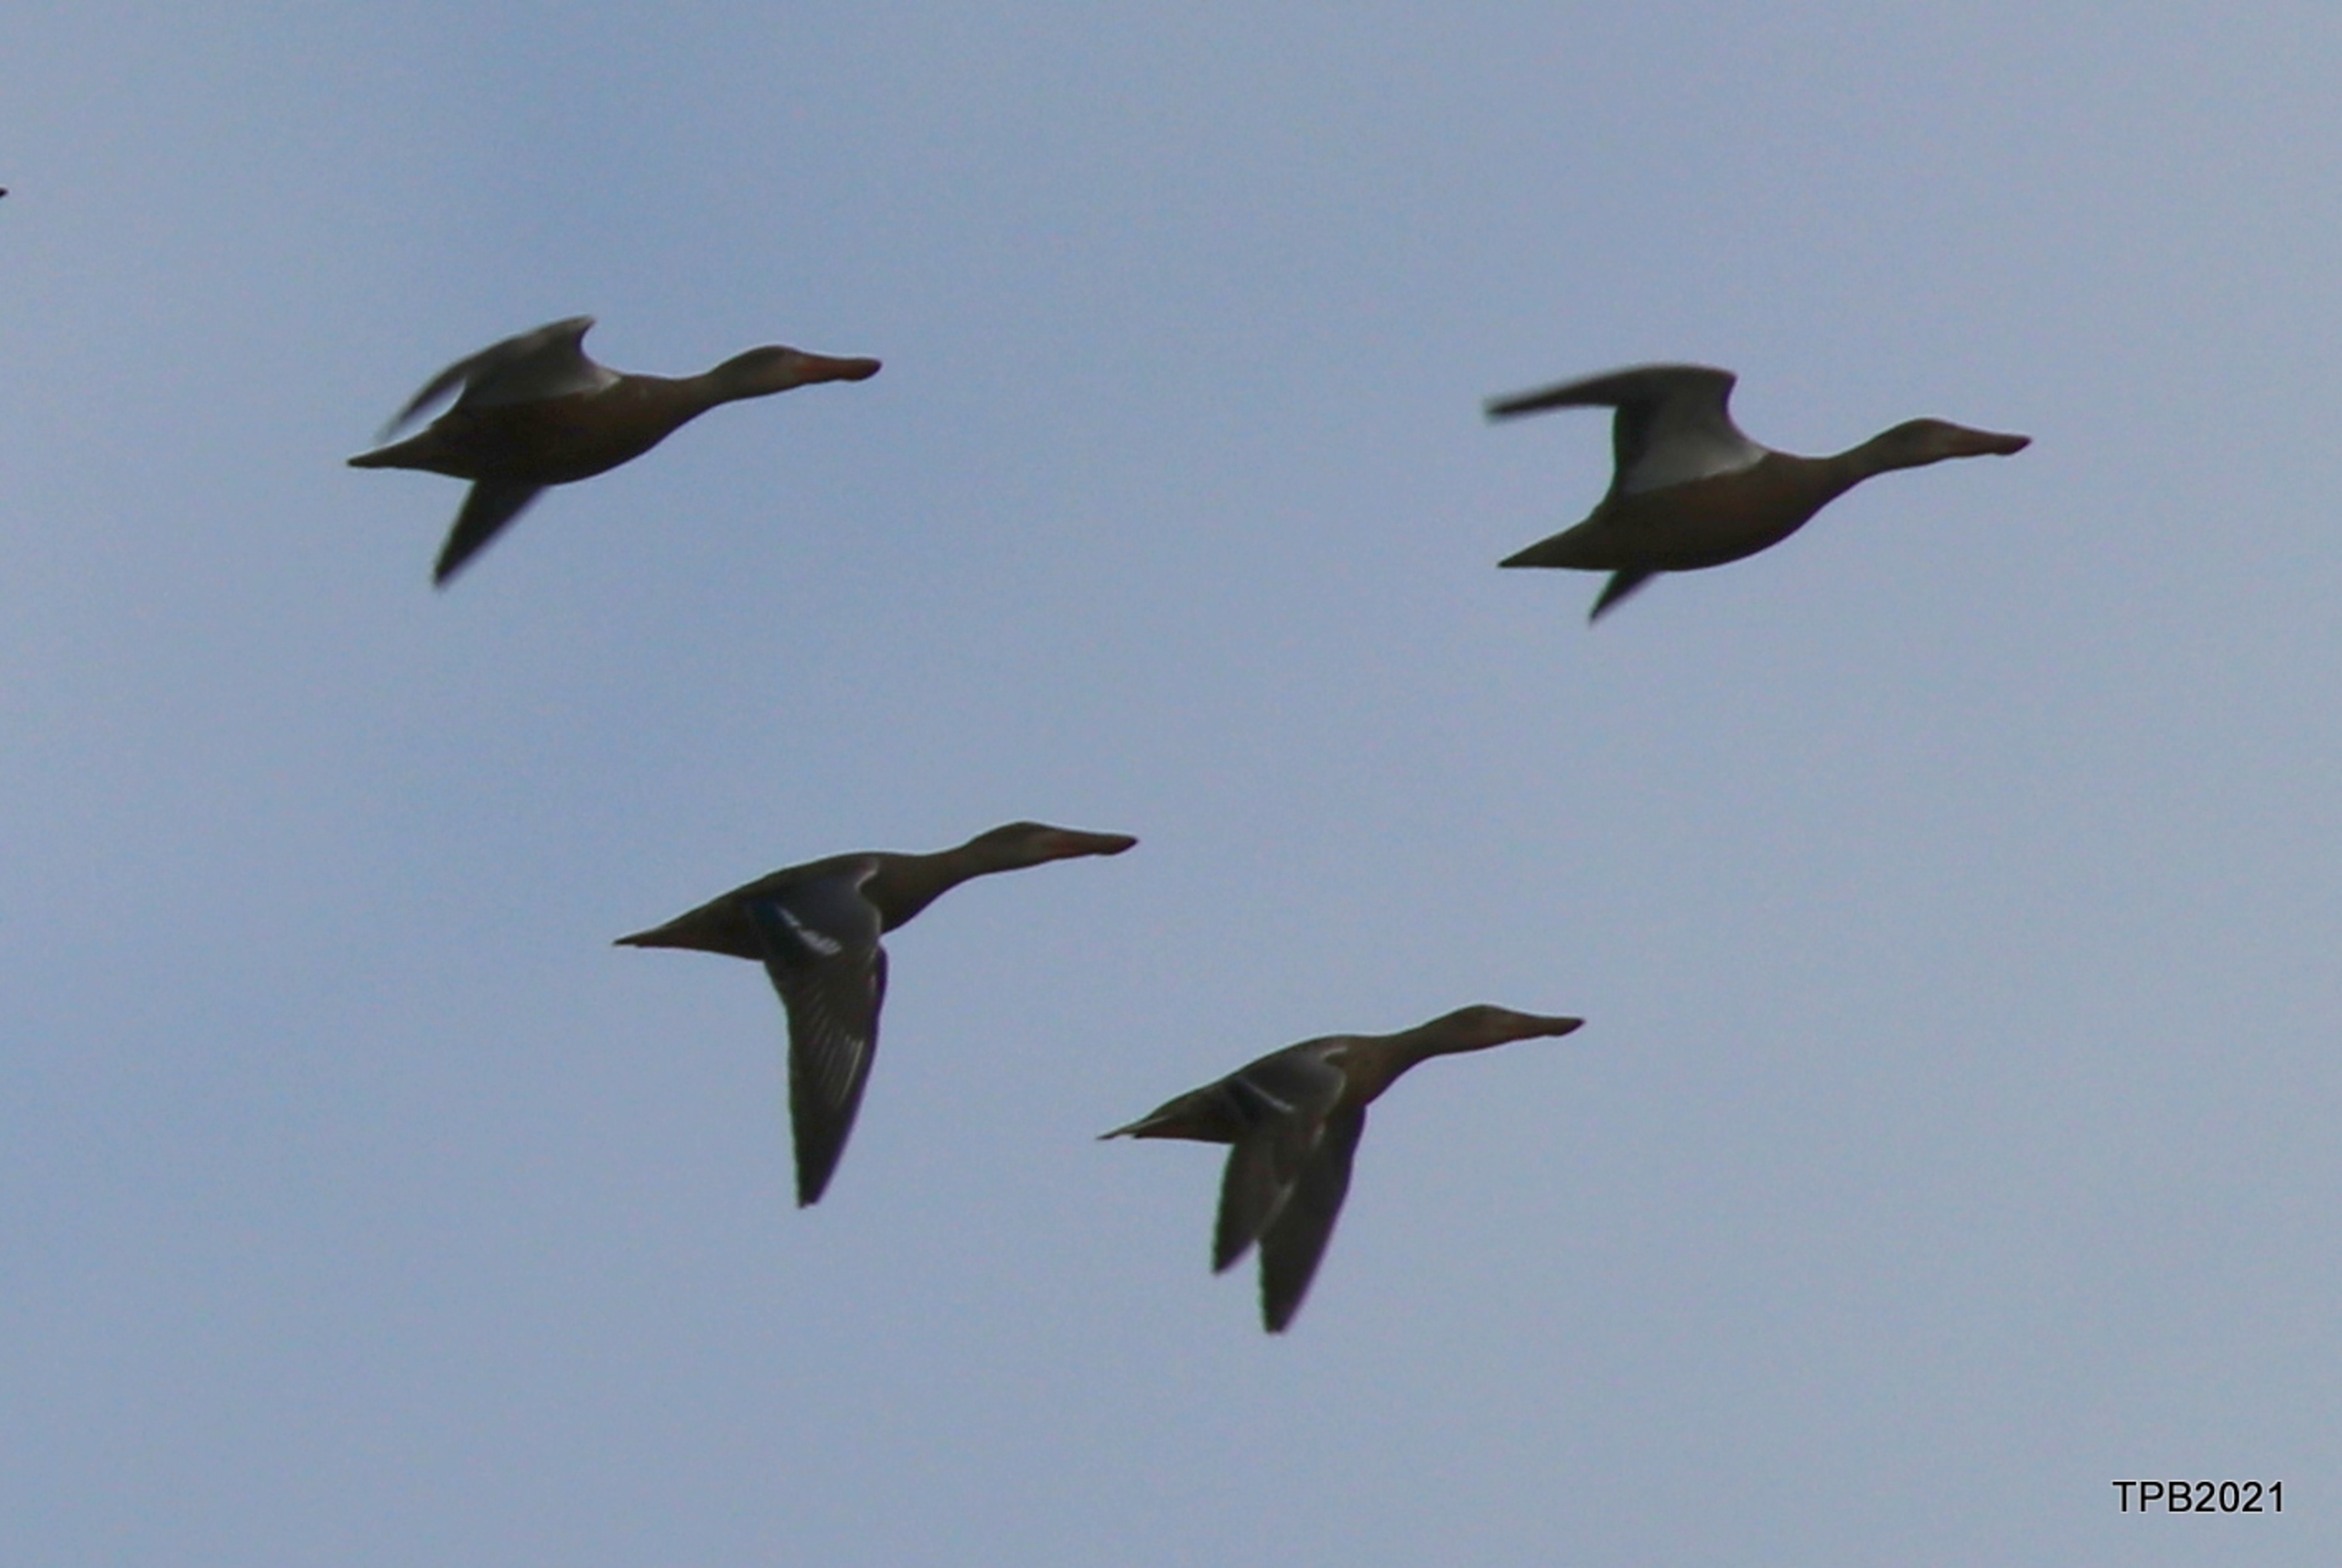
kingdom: Animalia
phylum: Chordata
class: Aves
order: Anseriformes
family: Anatidae
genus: Spatula
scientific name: Spatula clypeata
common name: Skeand
